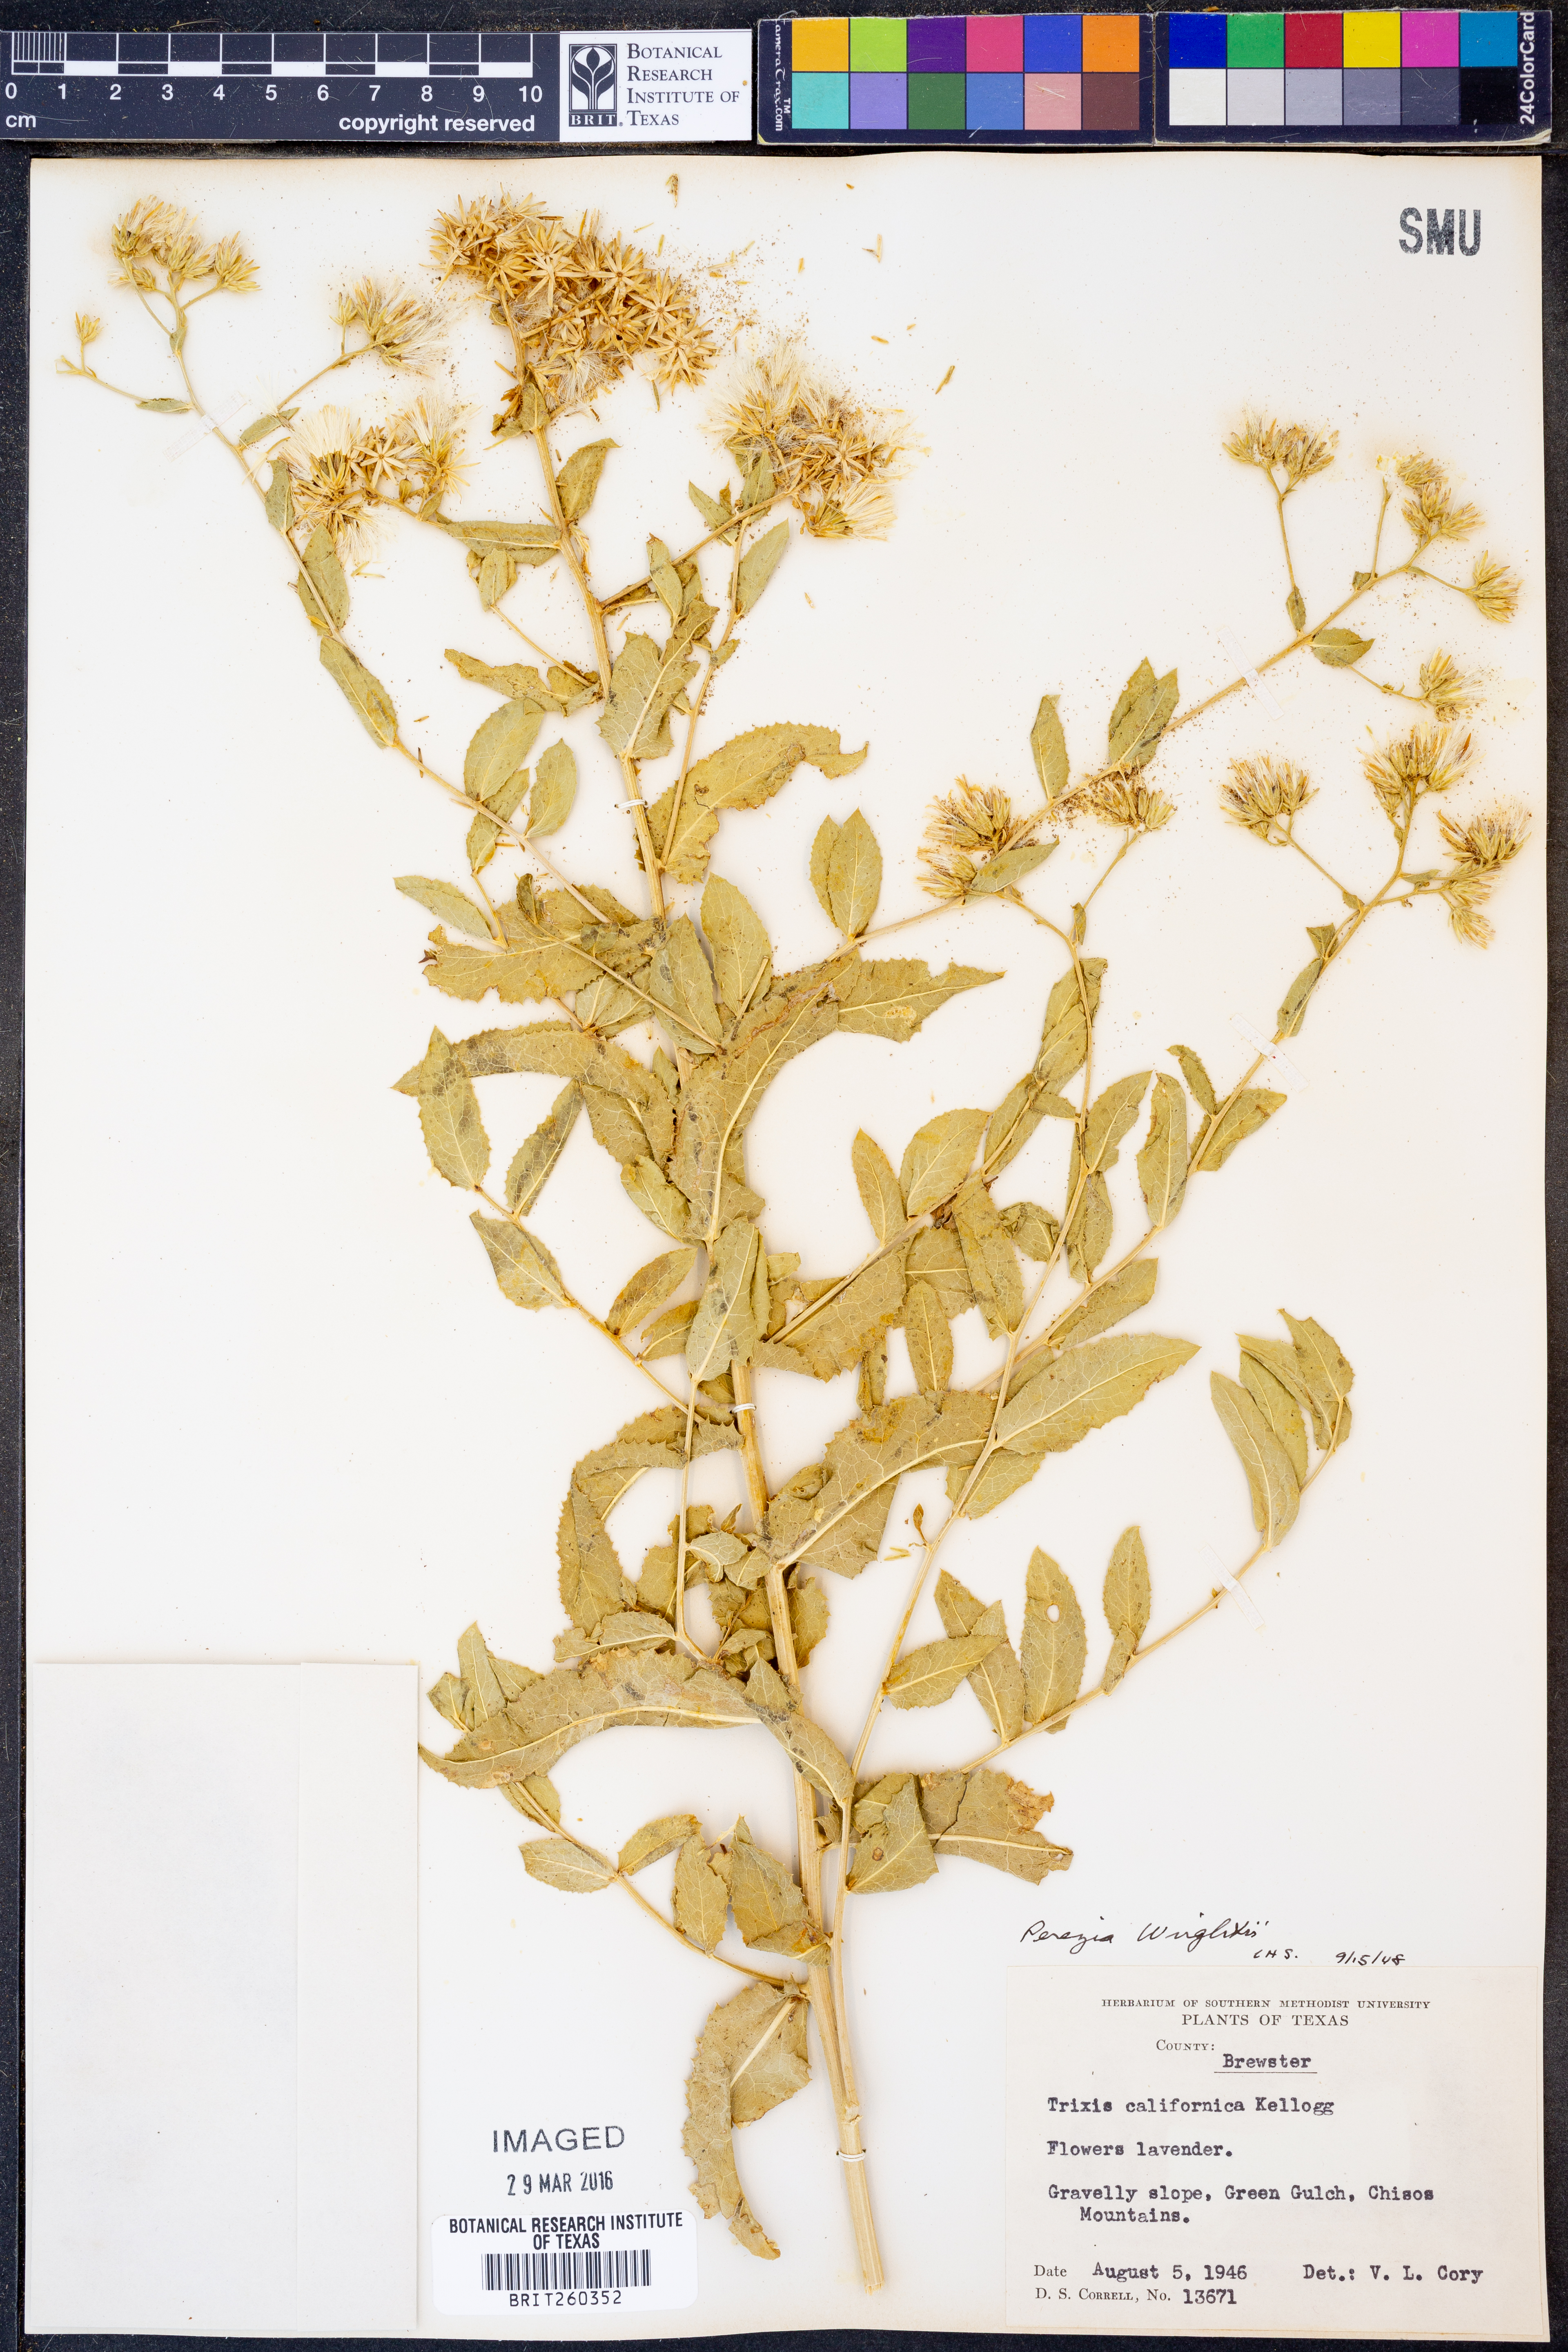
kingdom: Plantae
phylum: Tracheophyta
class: Magnoliopsida
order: Asterales
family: Asteraceae
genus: Acourtia
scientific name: Acourtia wrightii
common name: Brownfoot
